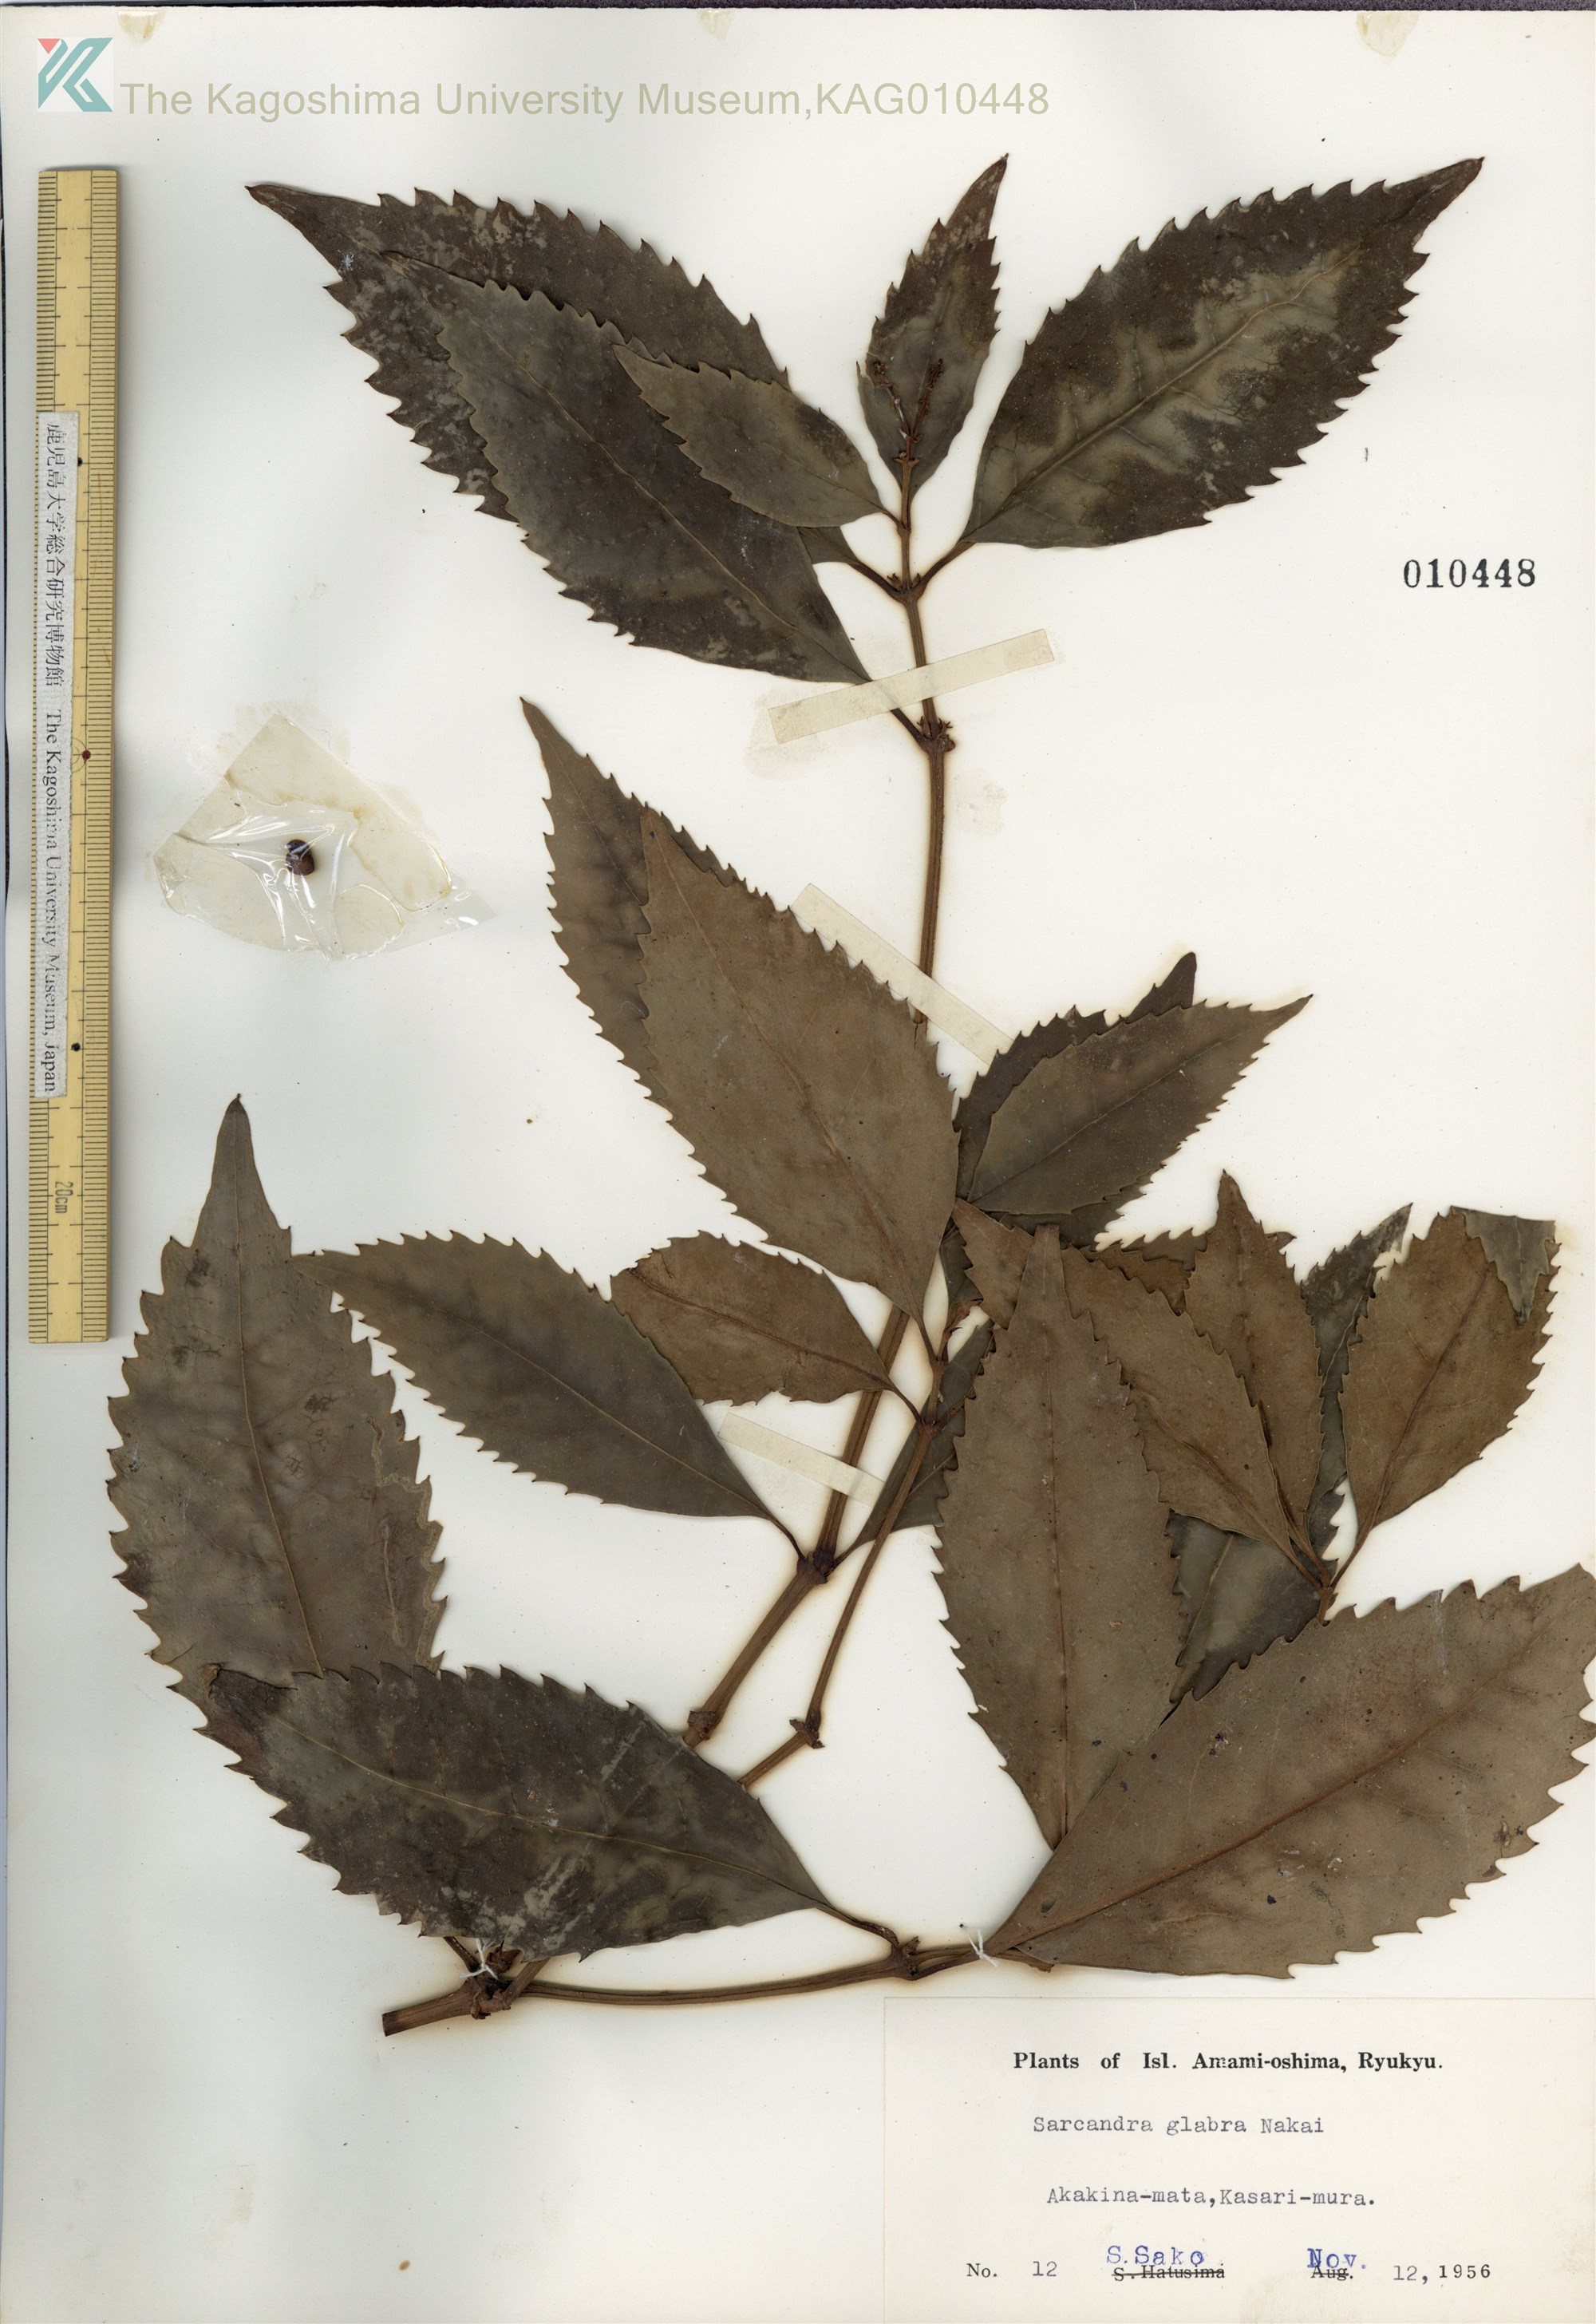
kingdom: Plantae
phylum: Tracheophyta
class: Magnoliopsida
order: Chloranthales
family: Chloranthaceae
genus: Sarcandra
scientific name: Sarcandra glabra
